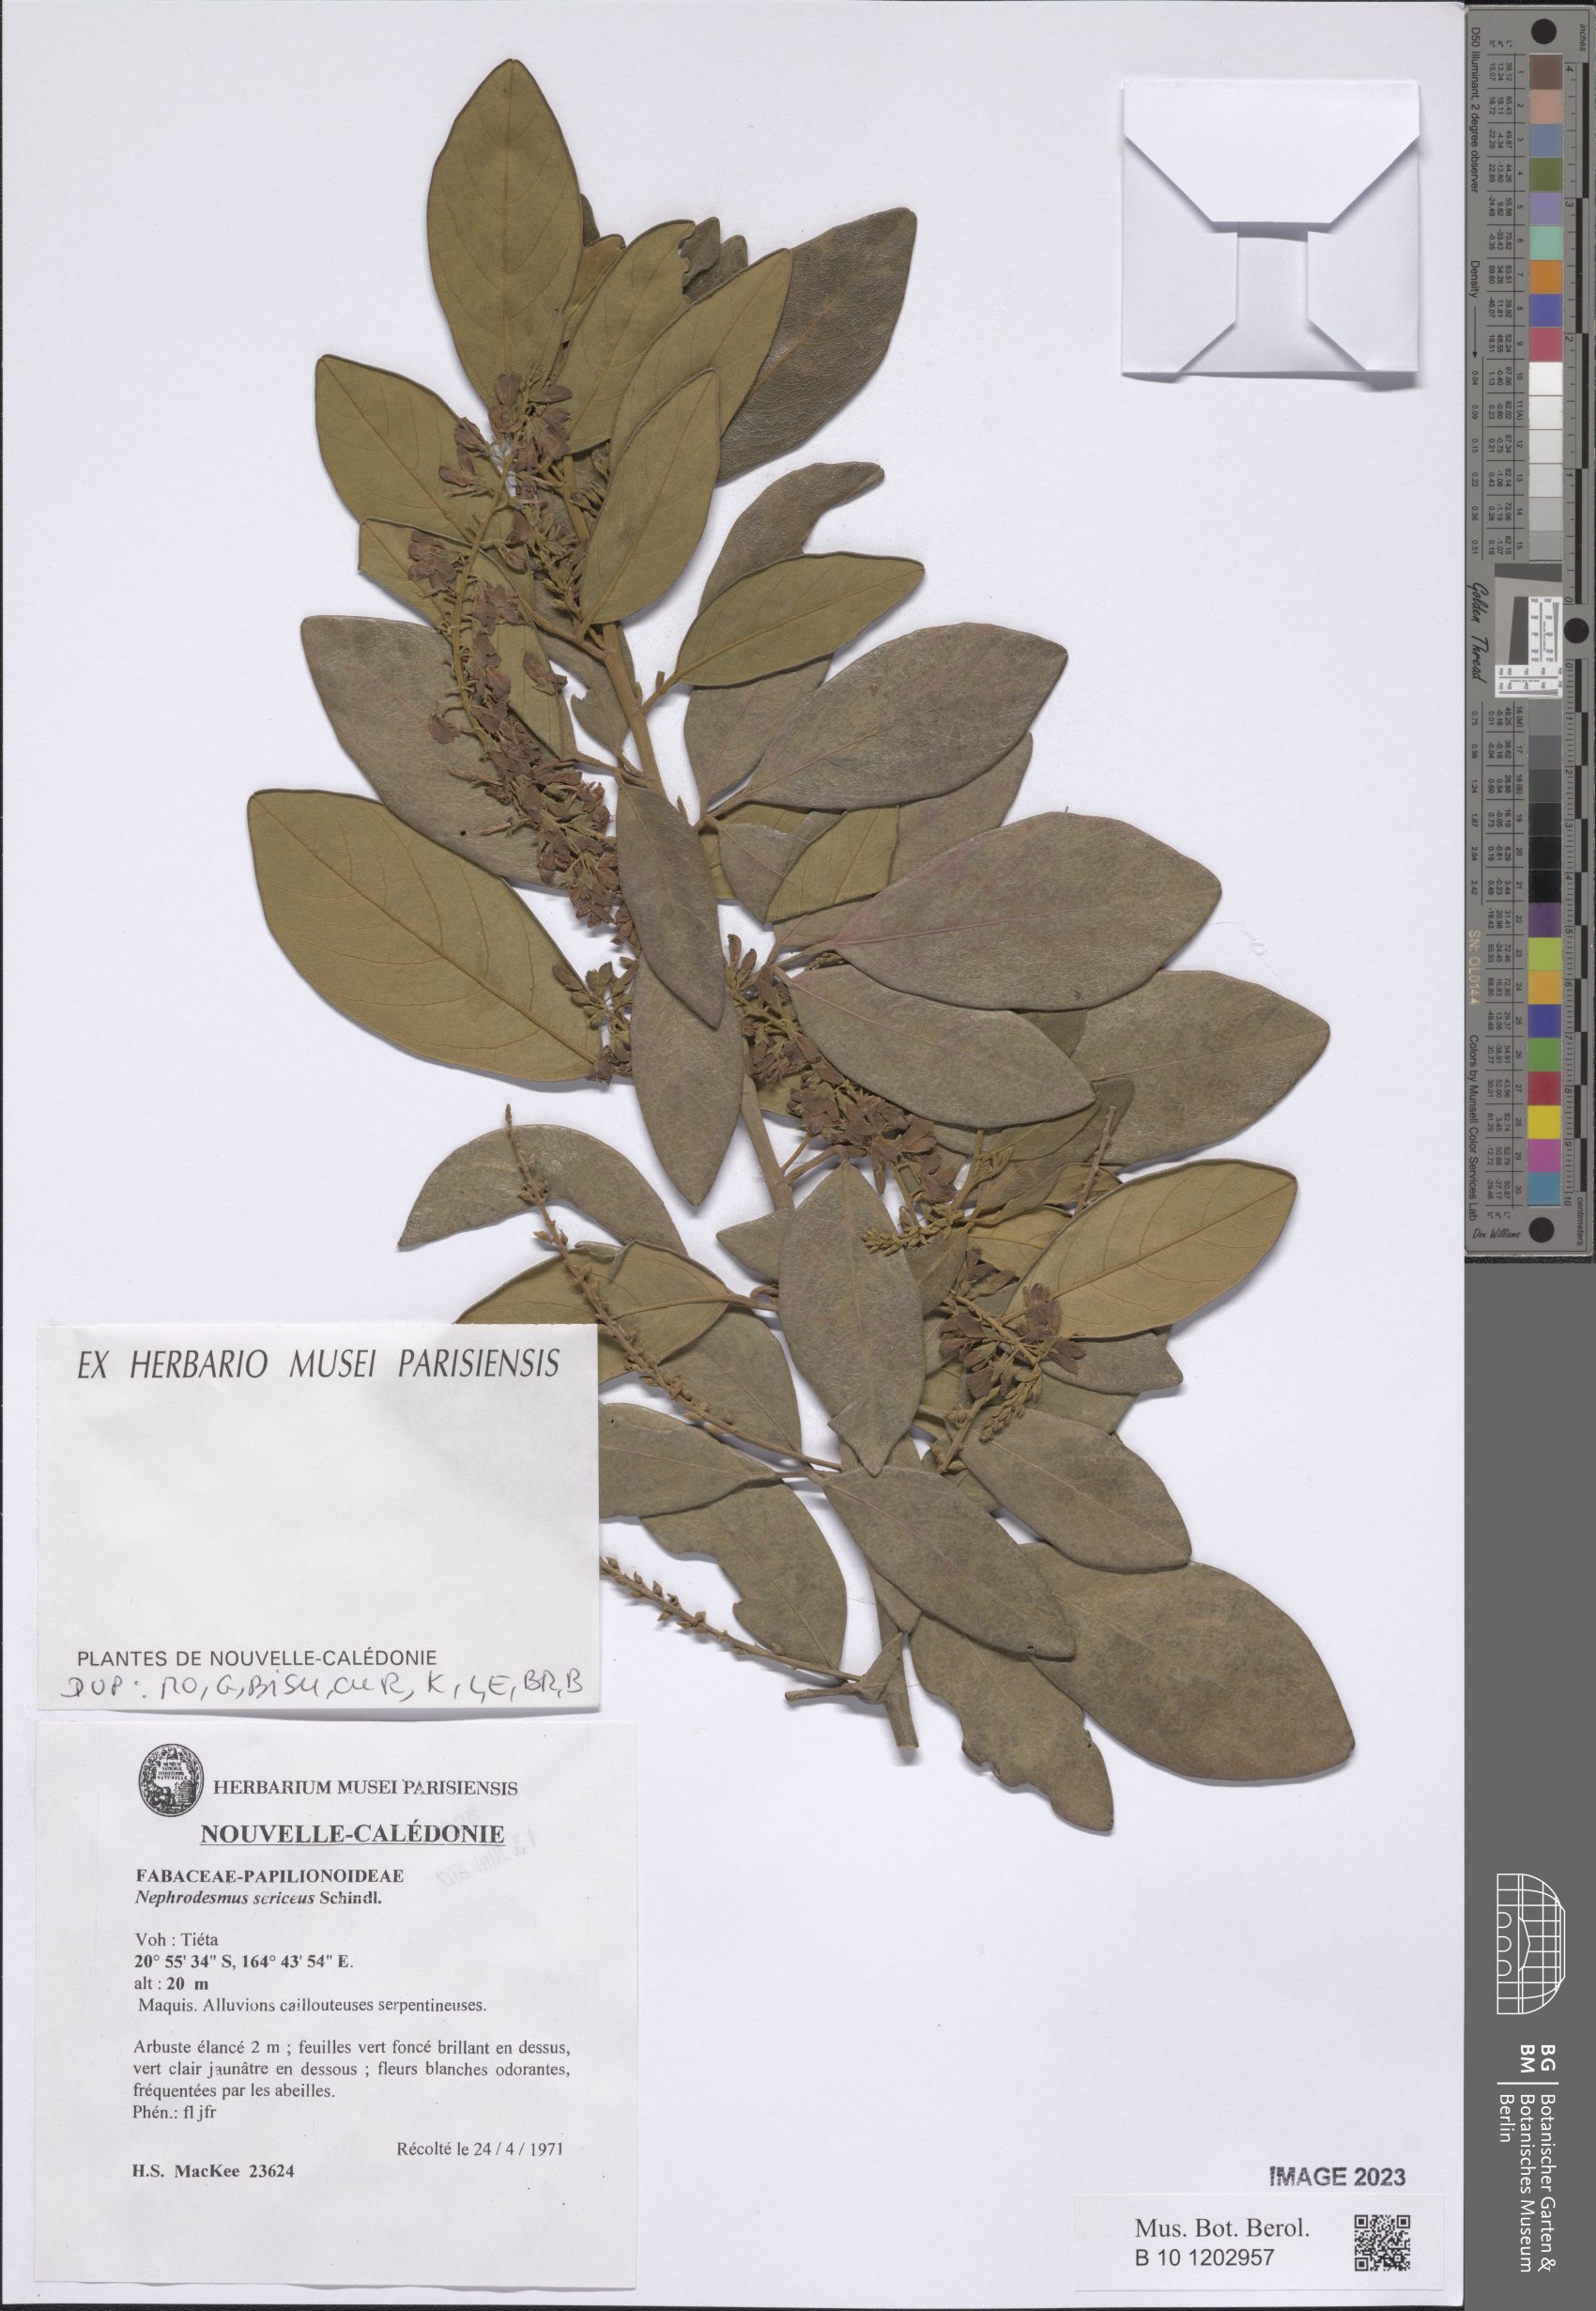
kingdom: Plantae
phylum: Tracheophyta
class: Magnoliopsida
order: Fabales
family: Fabaceae
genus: Nephrodesmus
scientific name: Nephrodesmus sericeus
